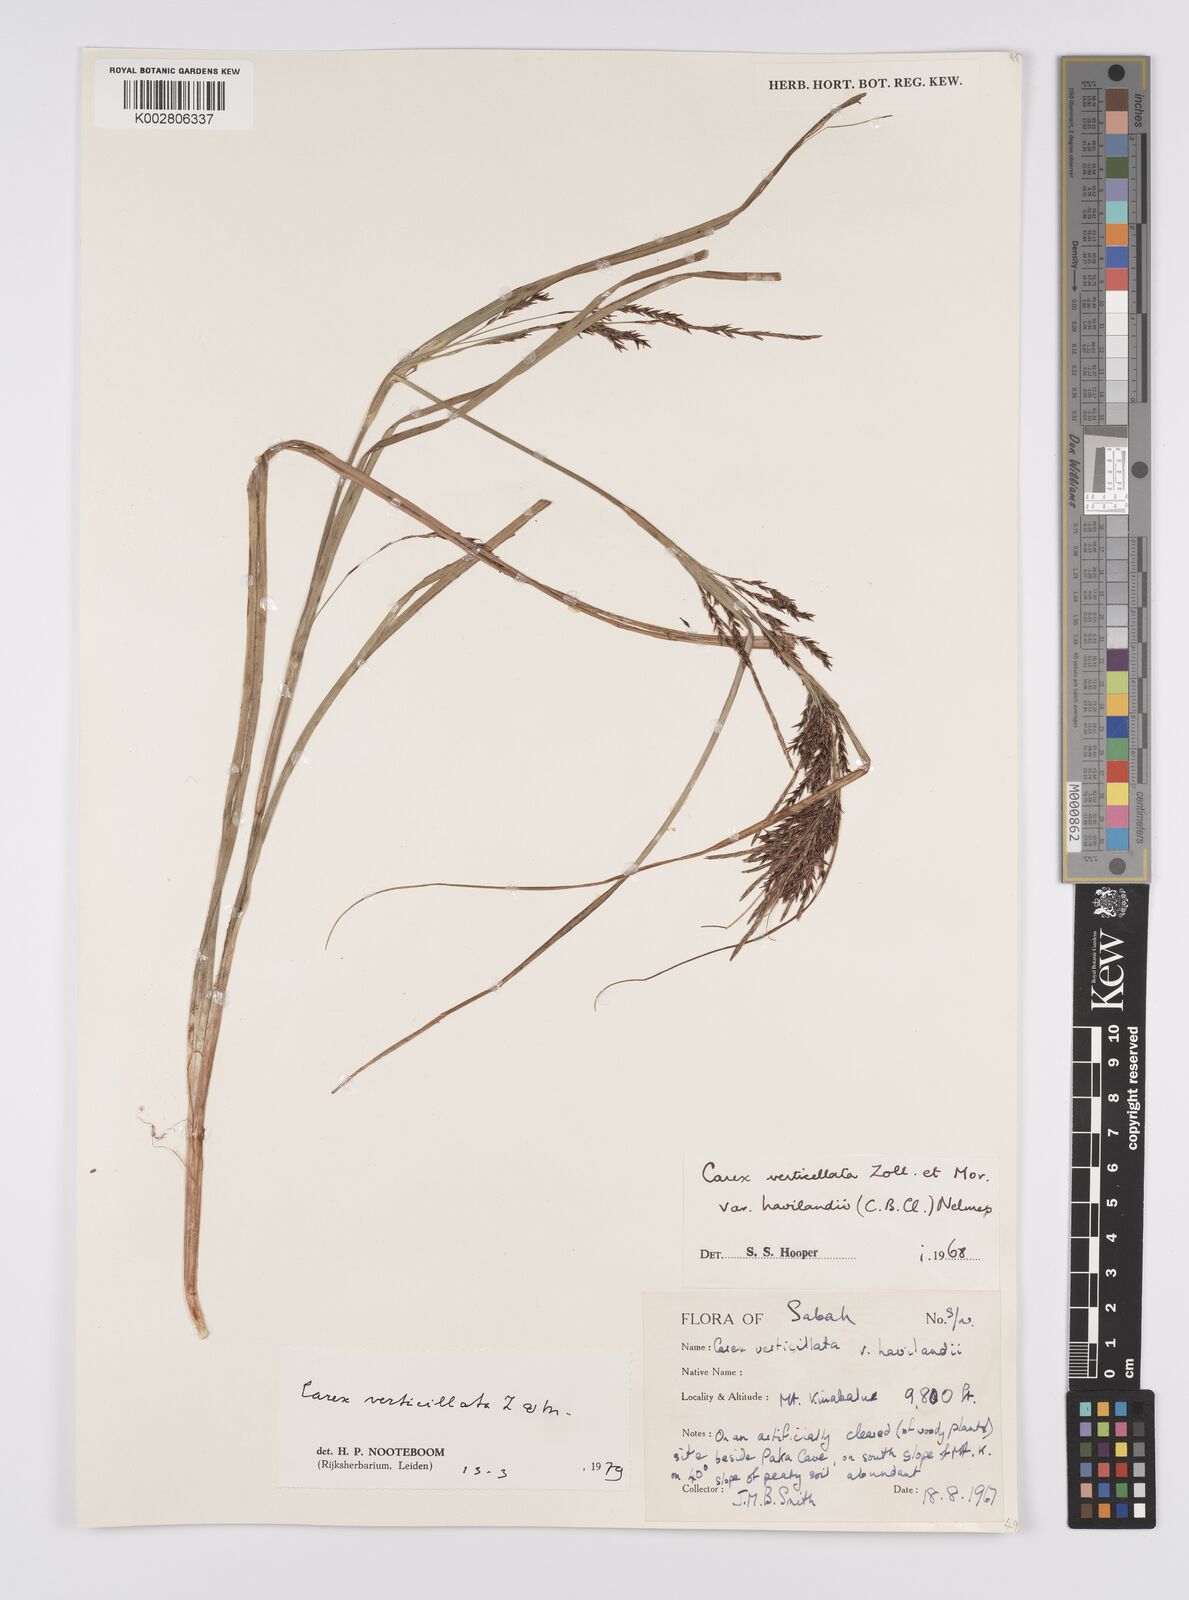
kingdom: Plantae
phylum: Tracheophyta
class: Liliopsida
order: Poales
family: Cyperaceae
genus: Carex
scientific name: Carex verticillata
